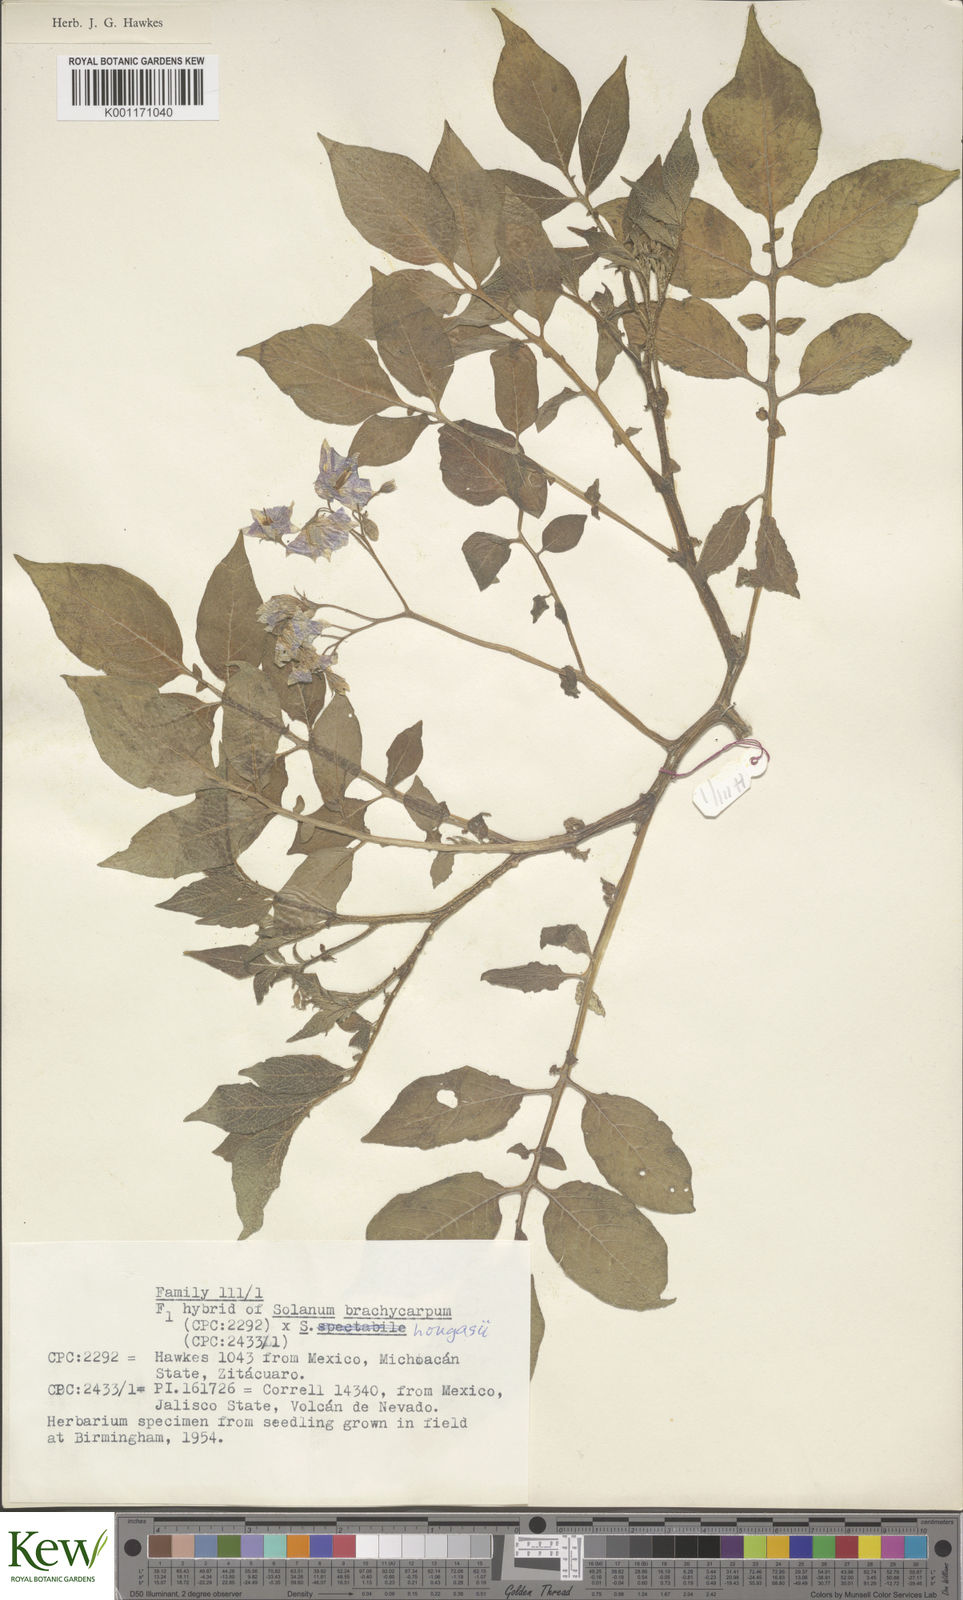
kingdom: Plantae
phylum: Tracheophyta
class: Magnoliopsida
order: Solanales
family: Solanaceae
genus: Solanum
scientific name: Solanum oxycarpum
